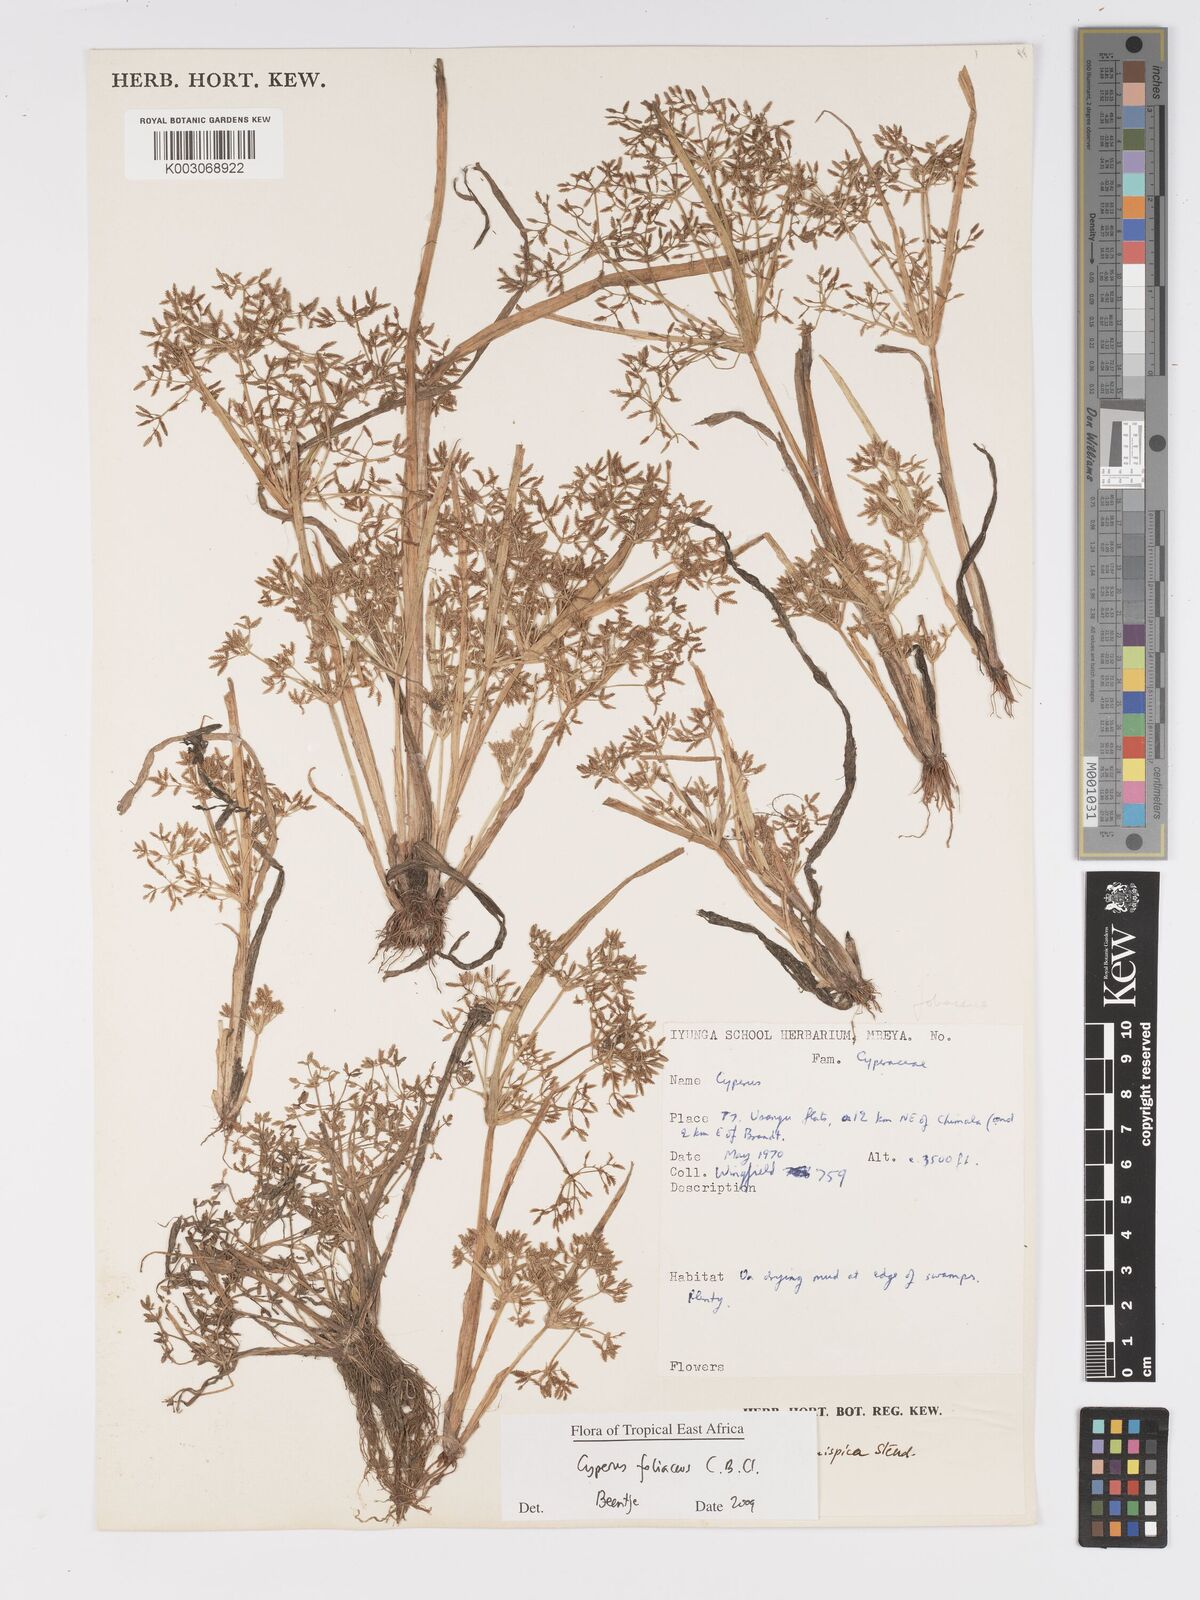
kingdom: Plantae
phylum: Tracheophyta
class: Liliopsida
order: Poales
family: Cyperaceae
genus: Cyperus
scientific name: Cyperus foliaceus
